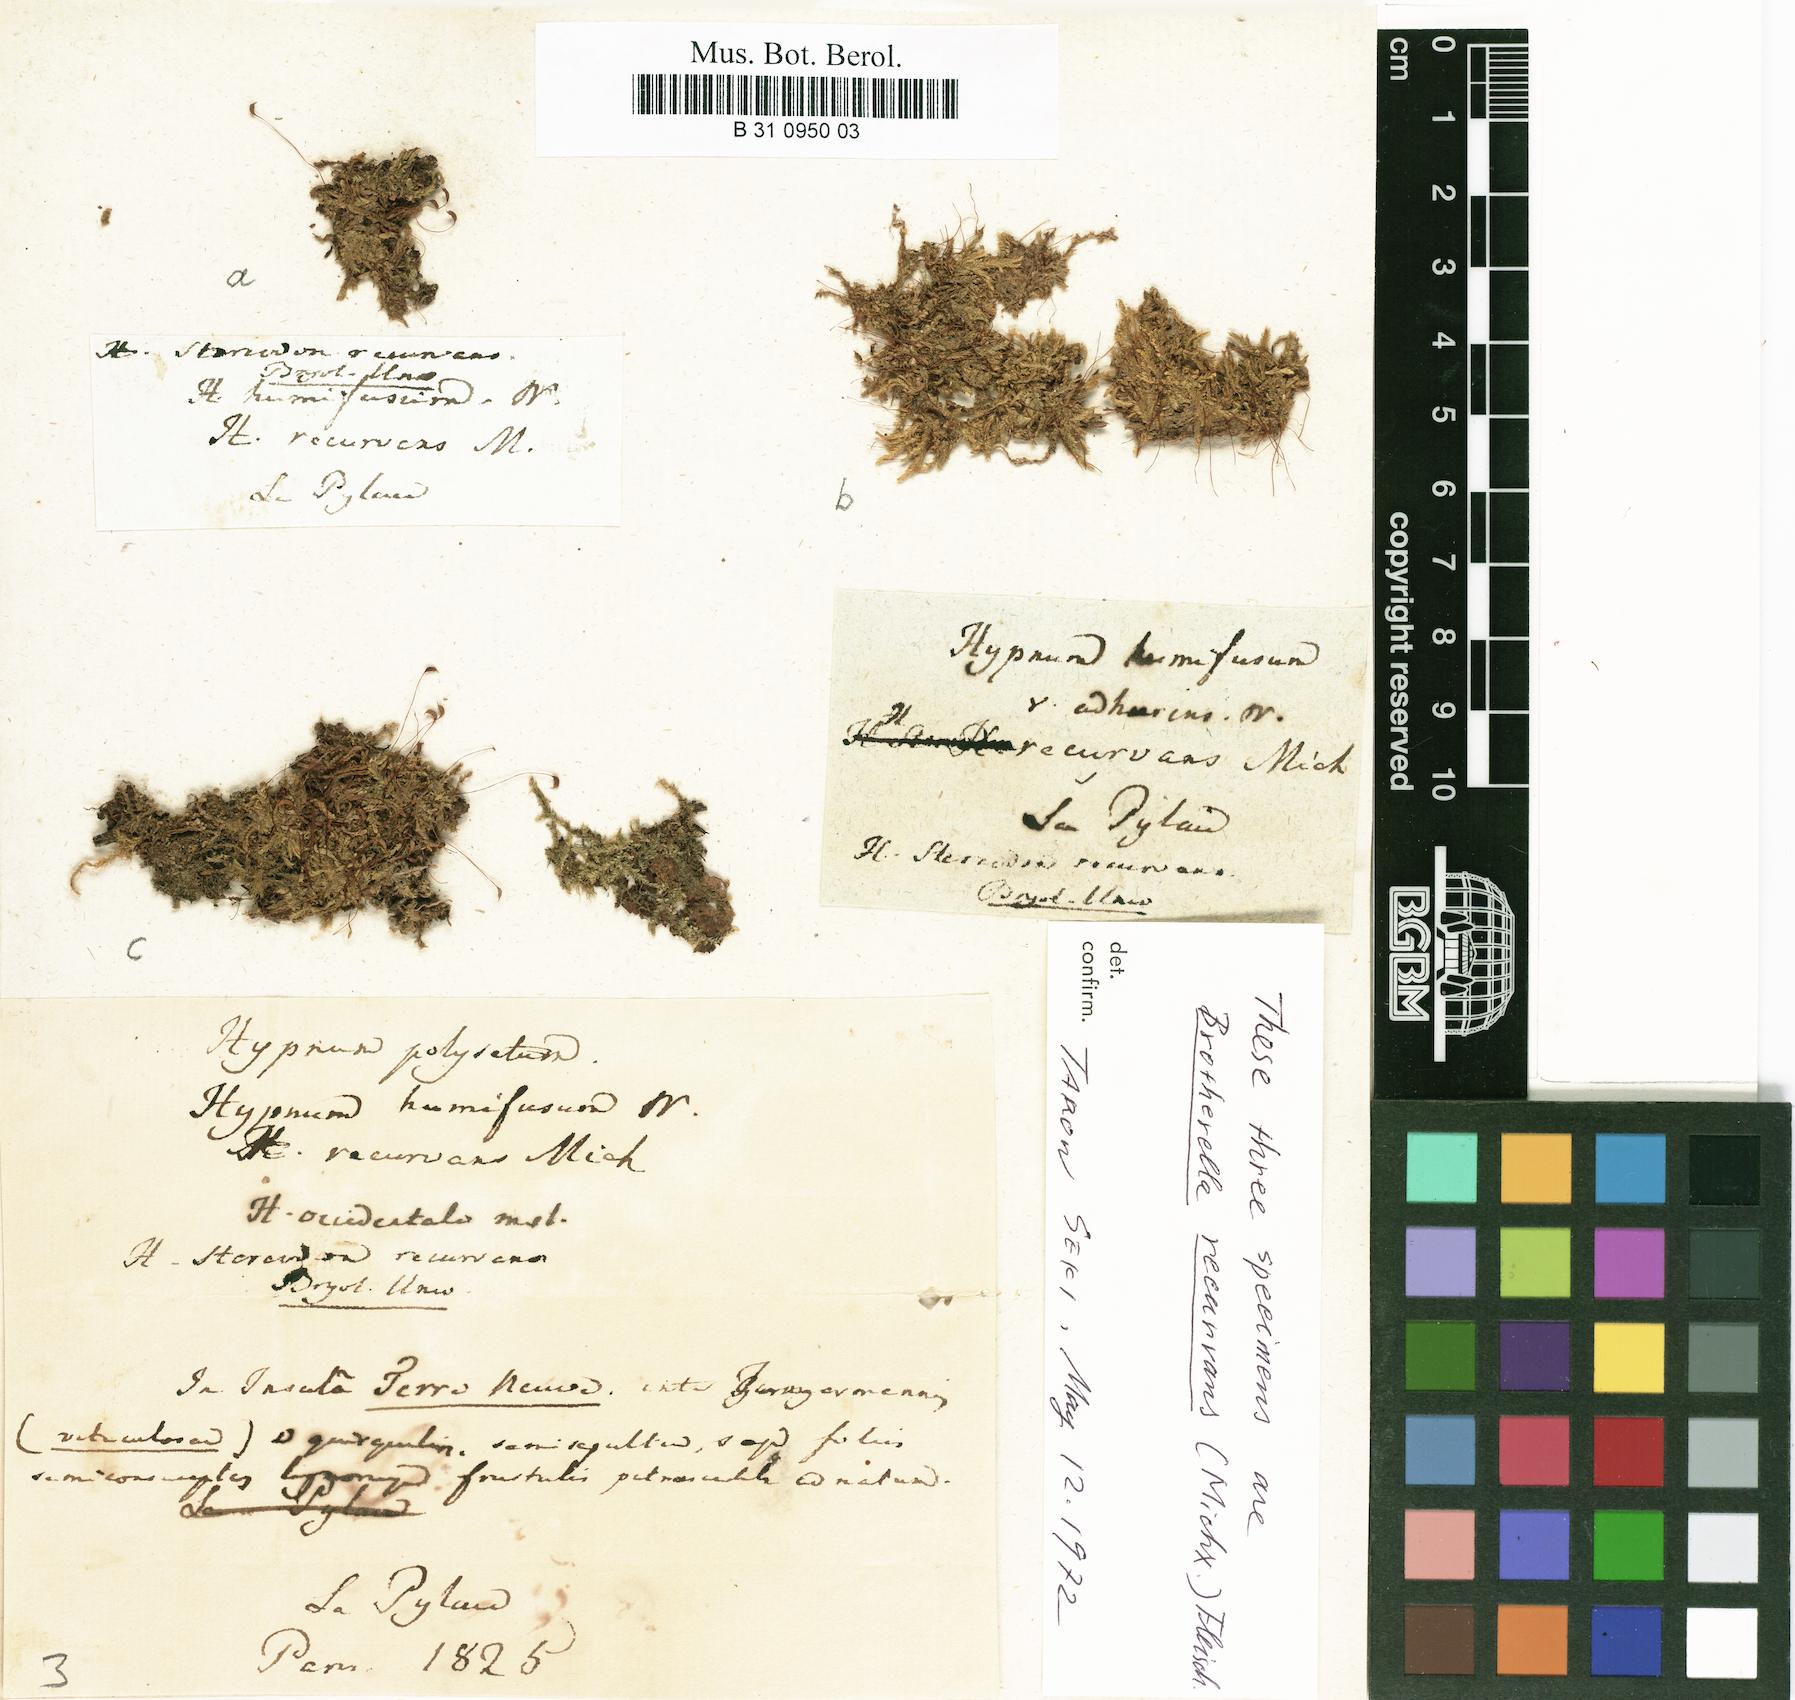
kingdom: Plantae
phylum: Bryophyta
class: Bryopsida
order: Hypnales
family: Pylaisiadelphaceae
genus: Brotherella
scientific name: Brotherella recurvans
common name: Recurved brotherella
